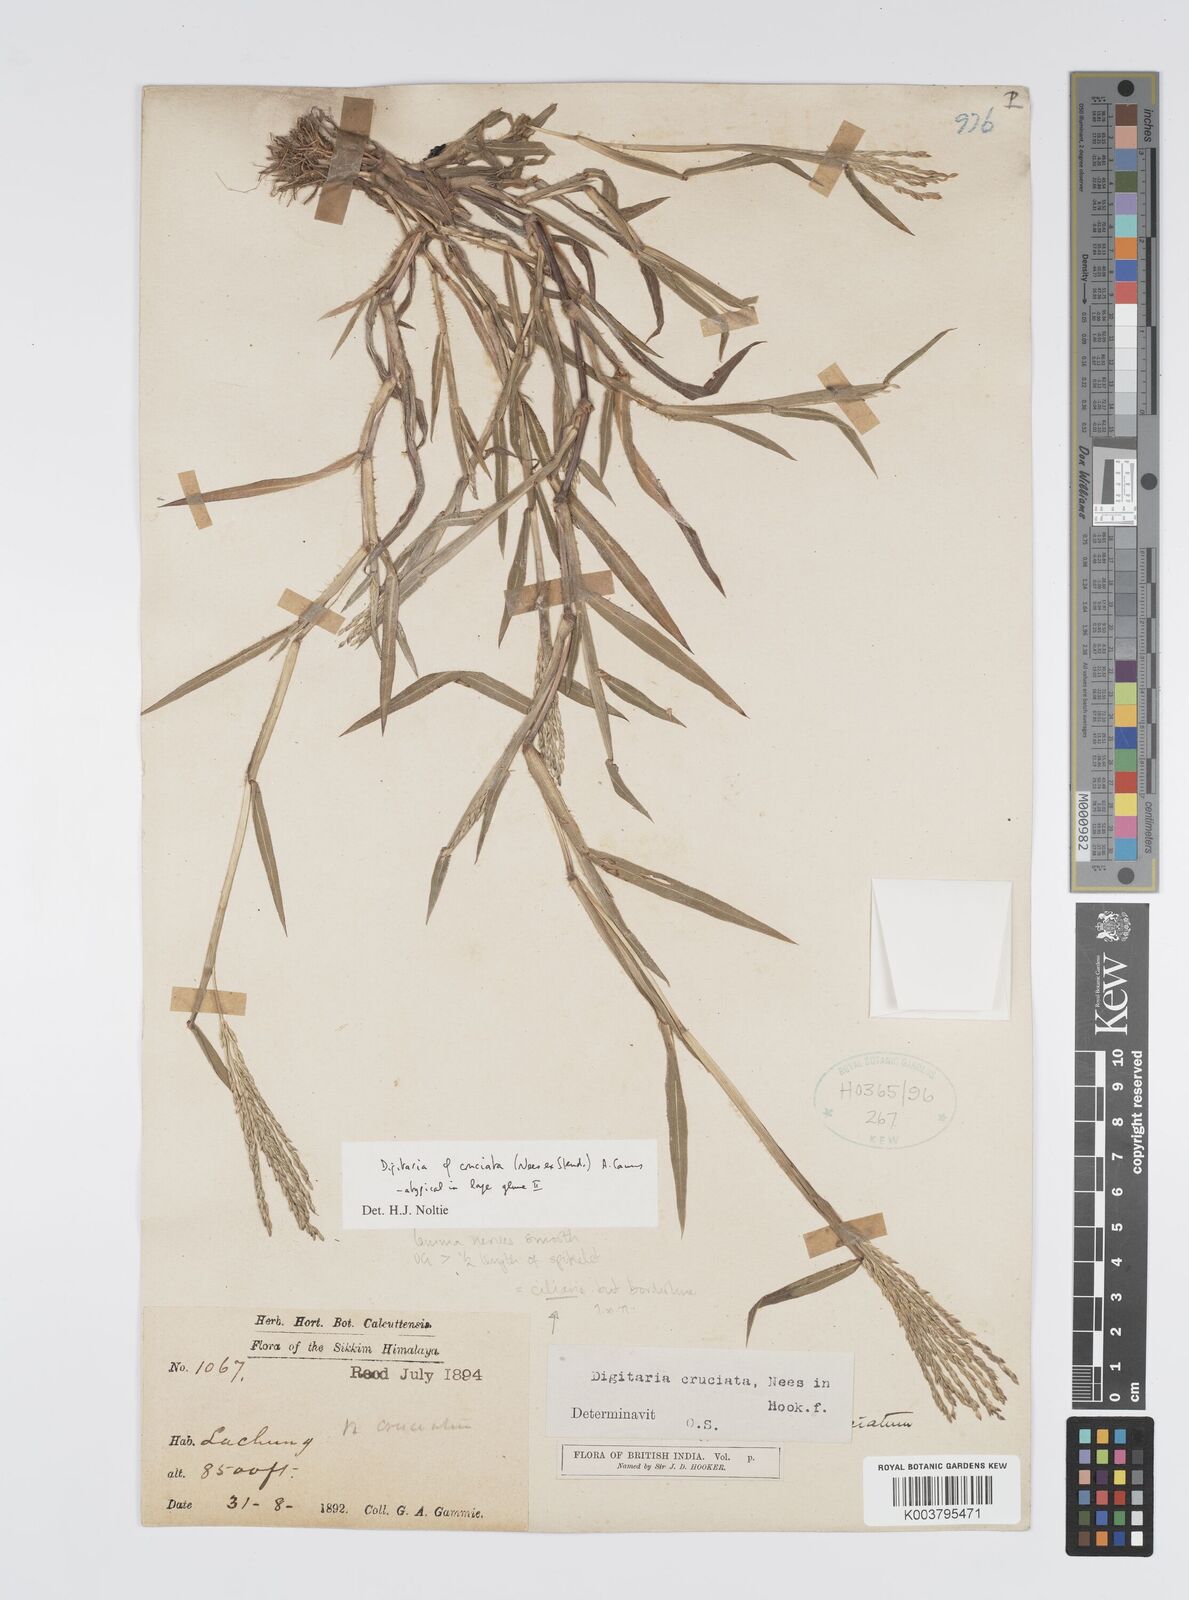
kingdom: Plantae
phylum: Tracheophyta
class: Liliopsida
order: Poales
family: Poaceae
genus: Digitaria
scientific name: Digitaria cruciata
